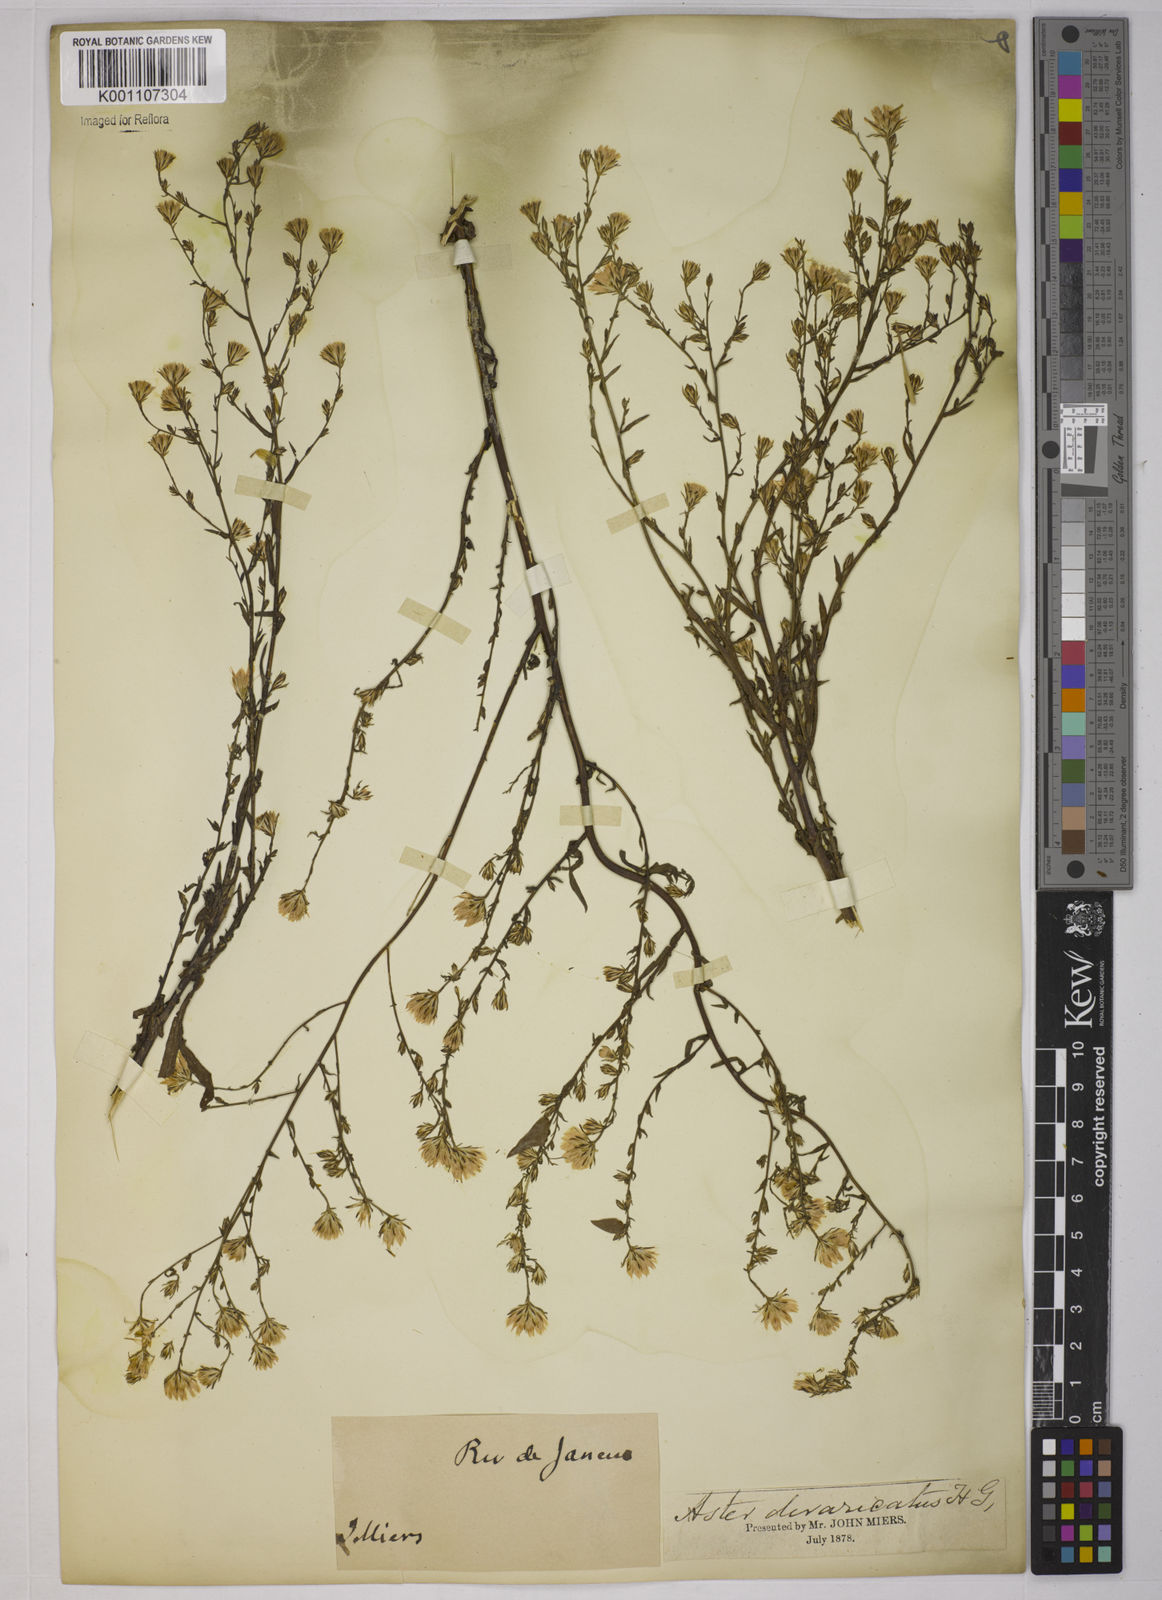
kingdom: Plantae
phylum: Tracheophyta
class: Magnoliopsida
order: Asterales
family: Asteraceae
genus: Symphyotrichum
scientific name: Symphyotrichum
